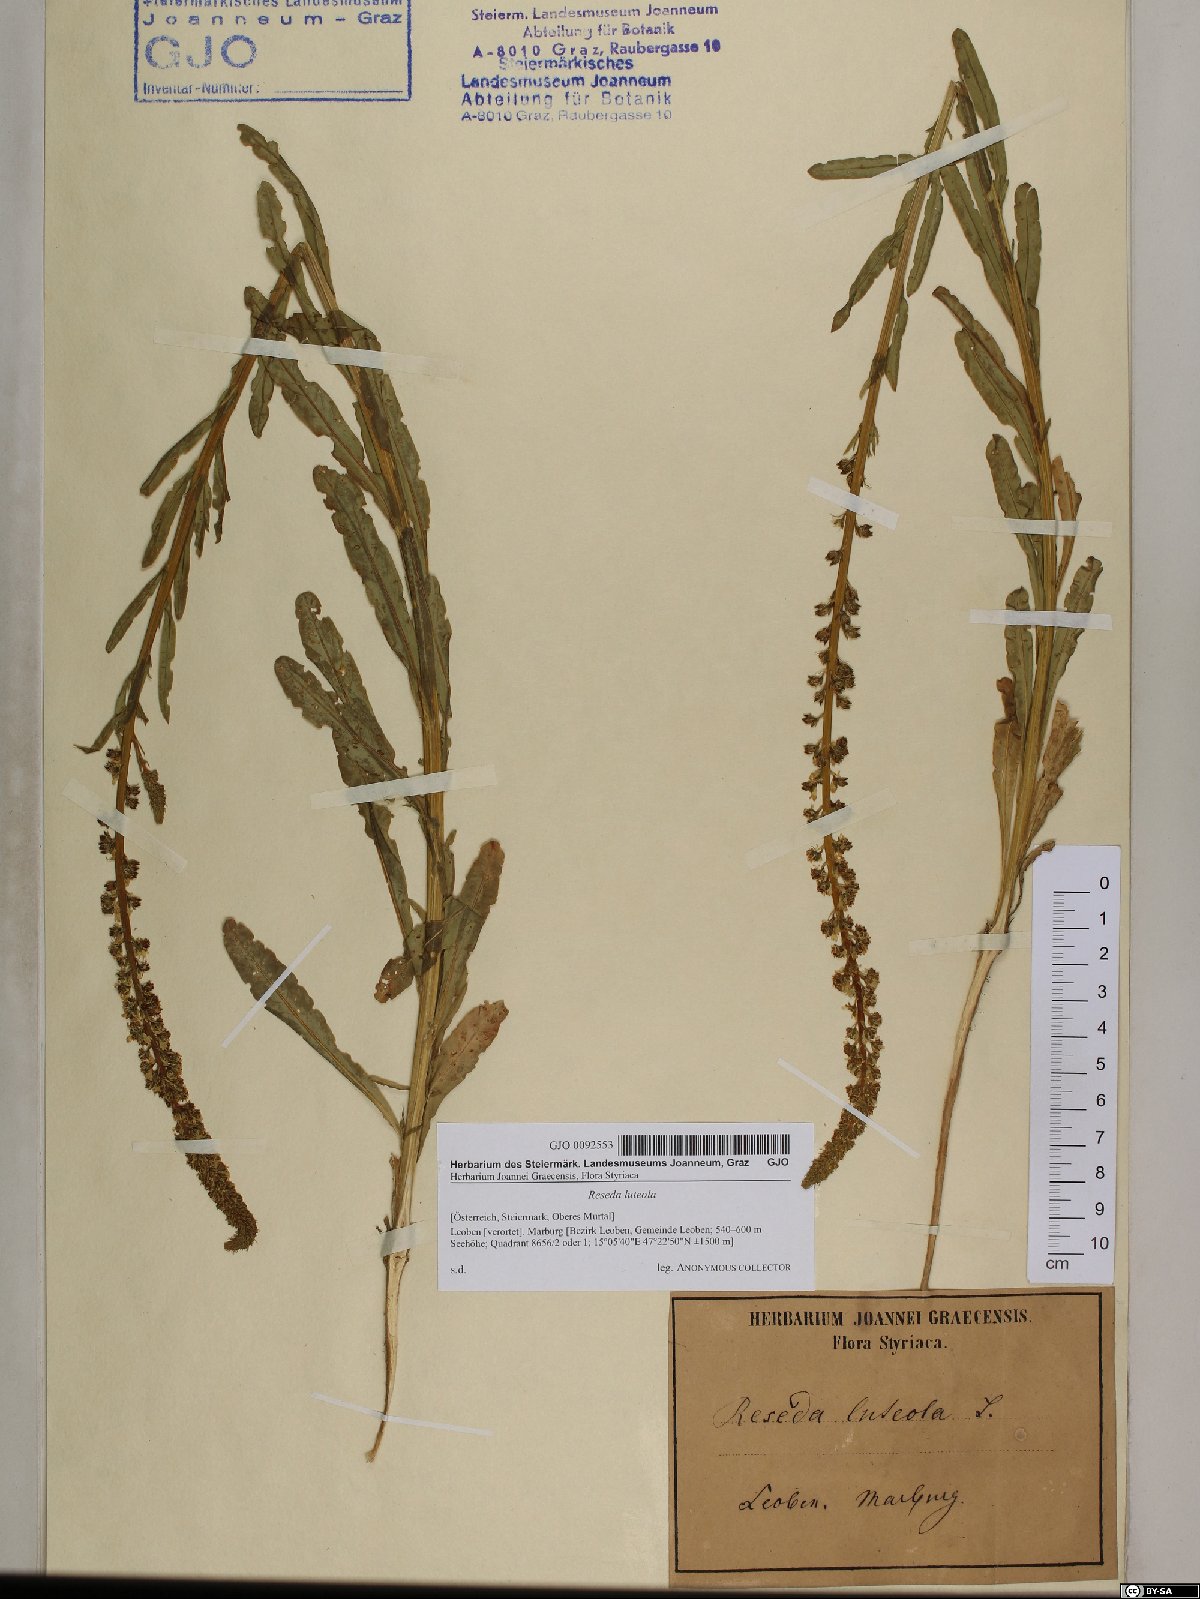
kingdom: Plantae
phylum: Tracheophyta
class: Magnoliopsida
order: Brassicales
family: Resedaceae
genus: Reseda
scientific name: Reseda luteola
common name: Weld
